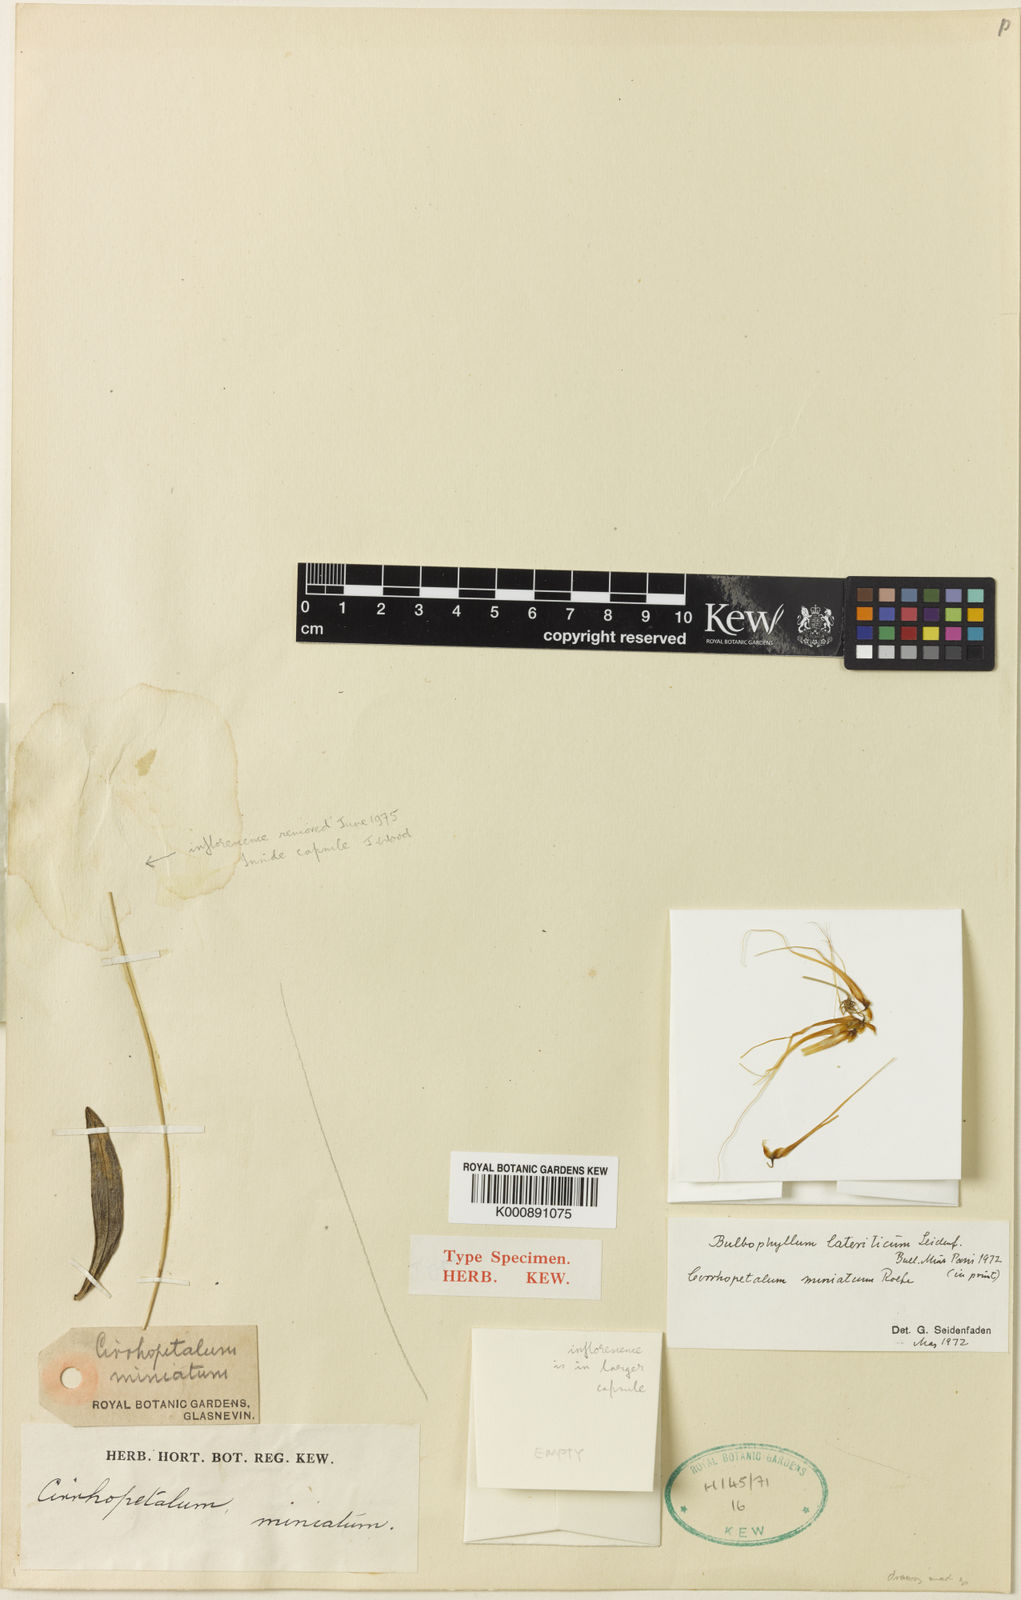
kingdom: Plantae
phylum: Tracheophyta
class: Liliopsida
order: Asparagales
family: Orchidaceae
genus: Bulbophyllum
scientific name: Bulbophyllum flaviflorum
